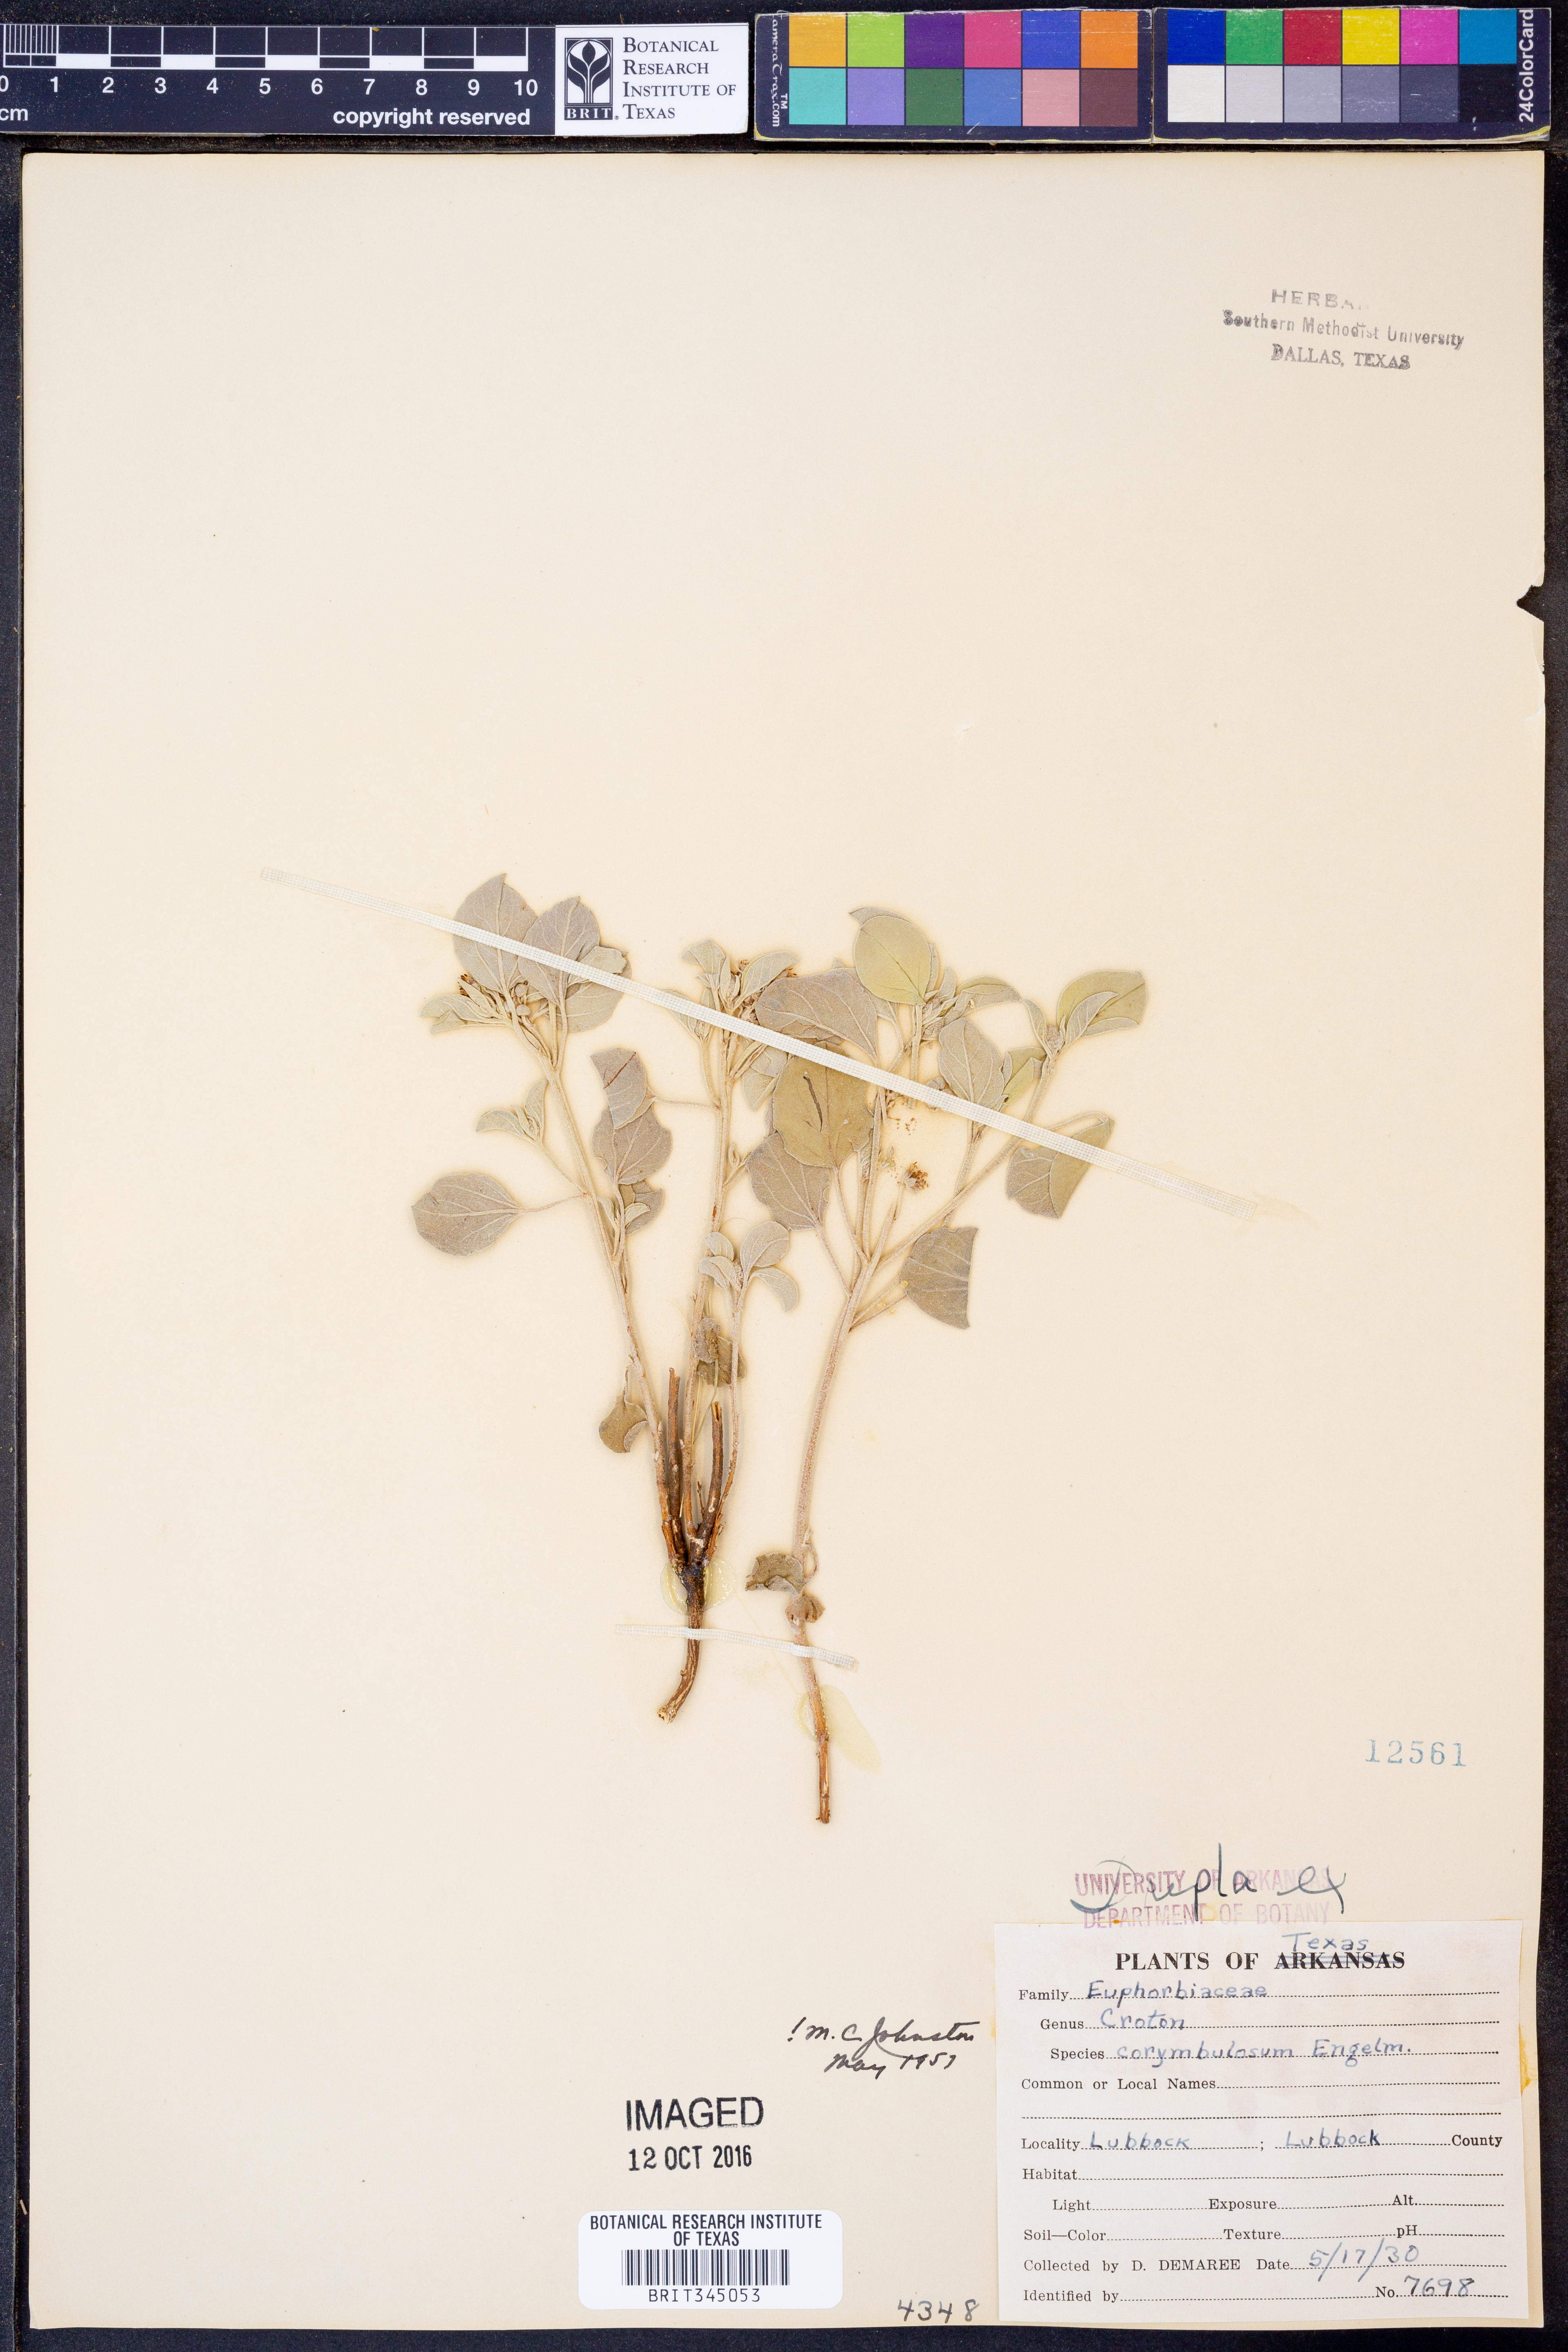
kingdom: Plantae
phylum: Tracheophyta
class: Magnoliopsida
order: Malpighiales
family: Euphorbiaceae
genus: Croton
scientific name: Croton pottsii
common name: Leatherweed
